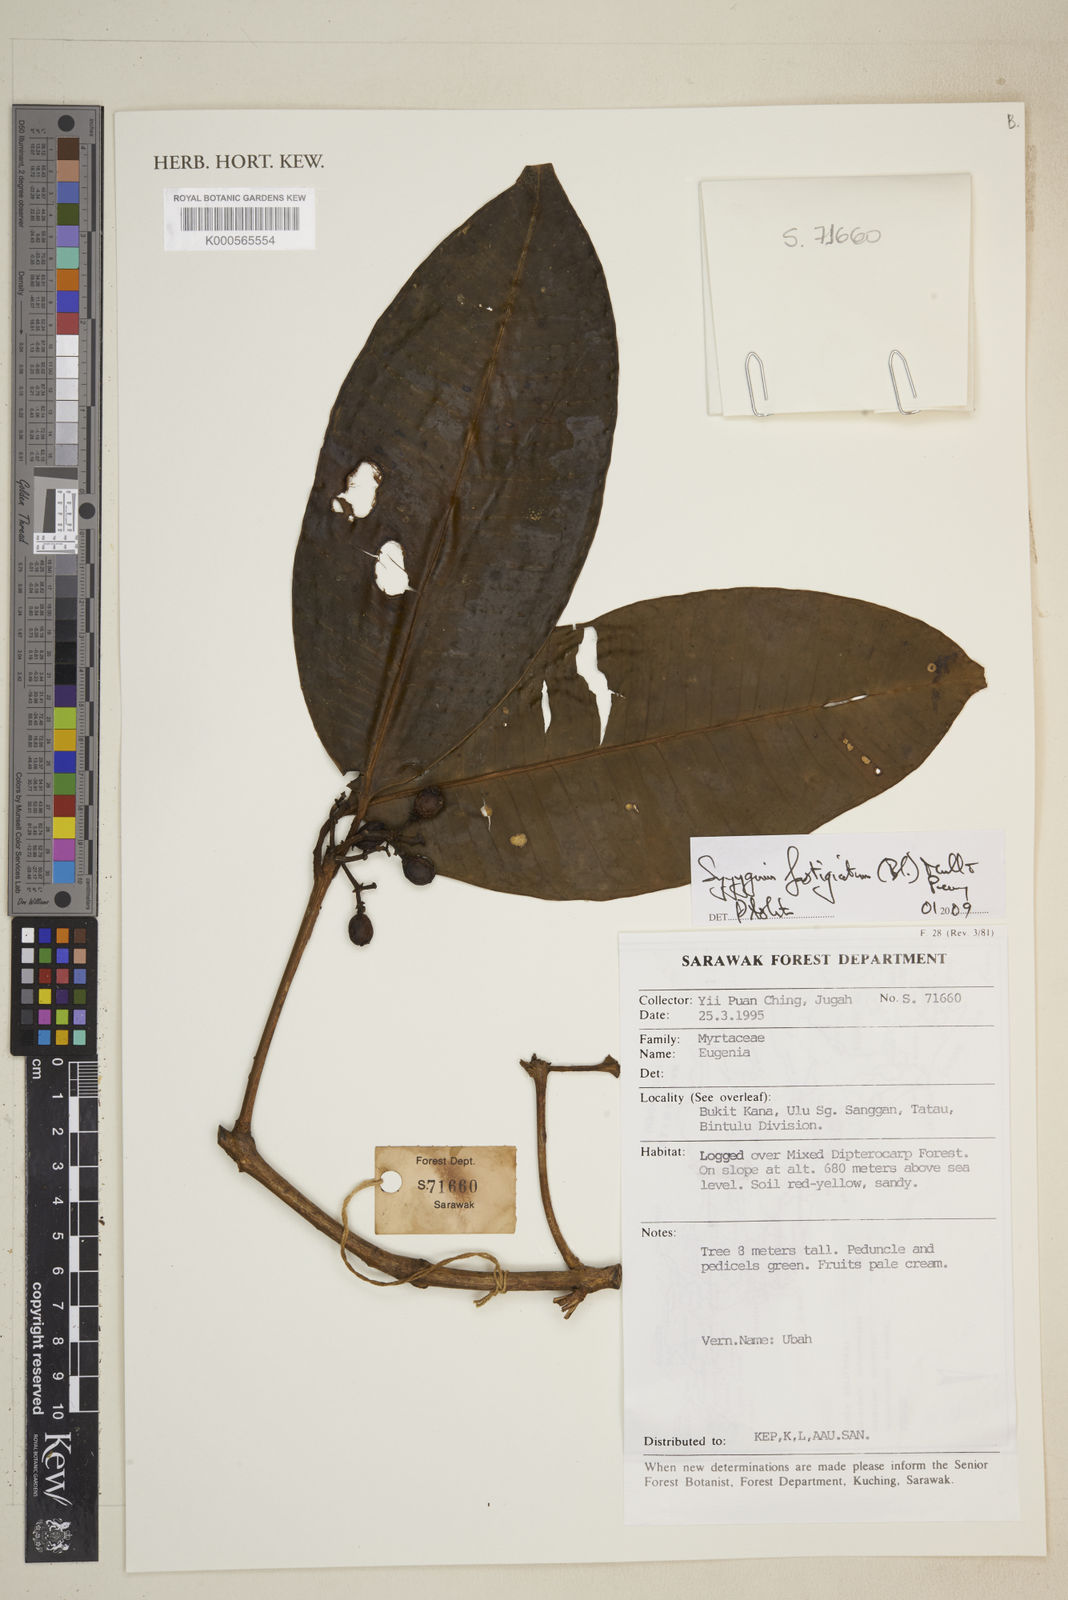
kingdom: Plantae
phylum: Tracheophyta
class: Magnoliopsida
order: Myrtales
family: Myrtaceae
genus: Syzygium
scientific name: Syzygium fastigiatum
